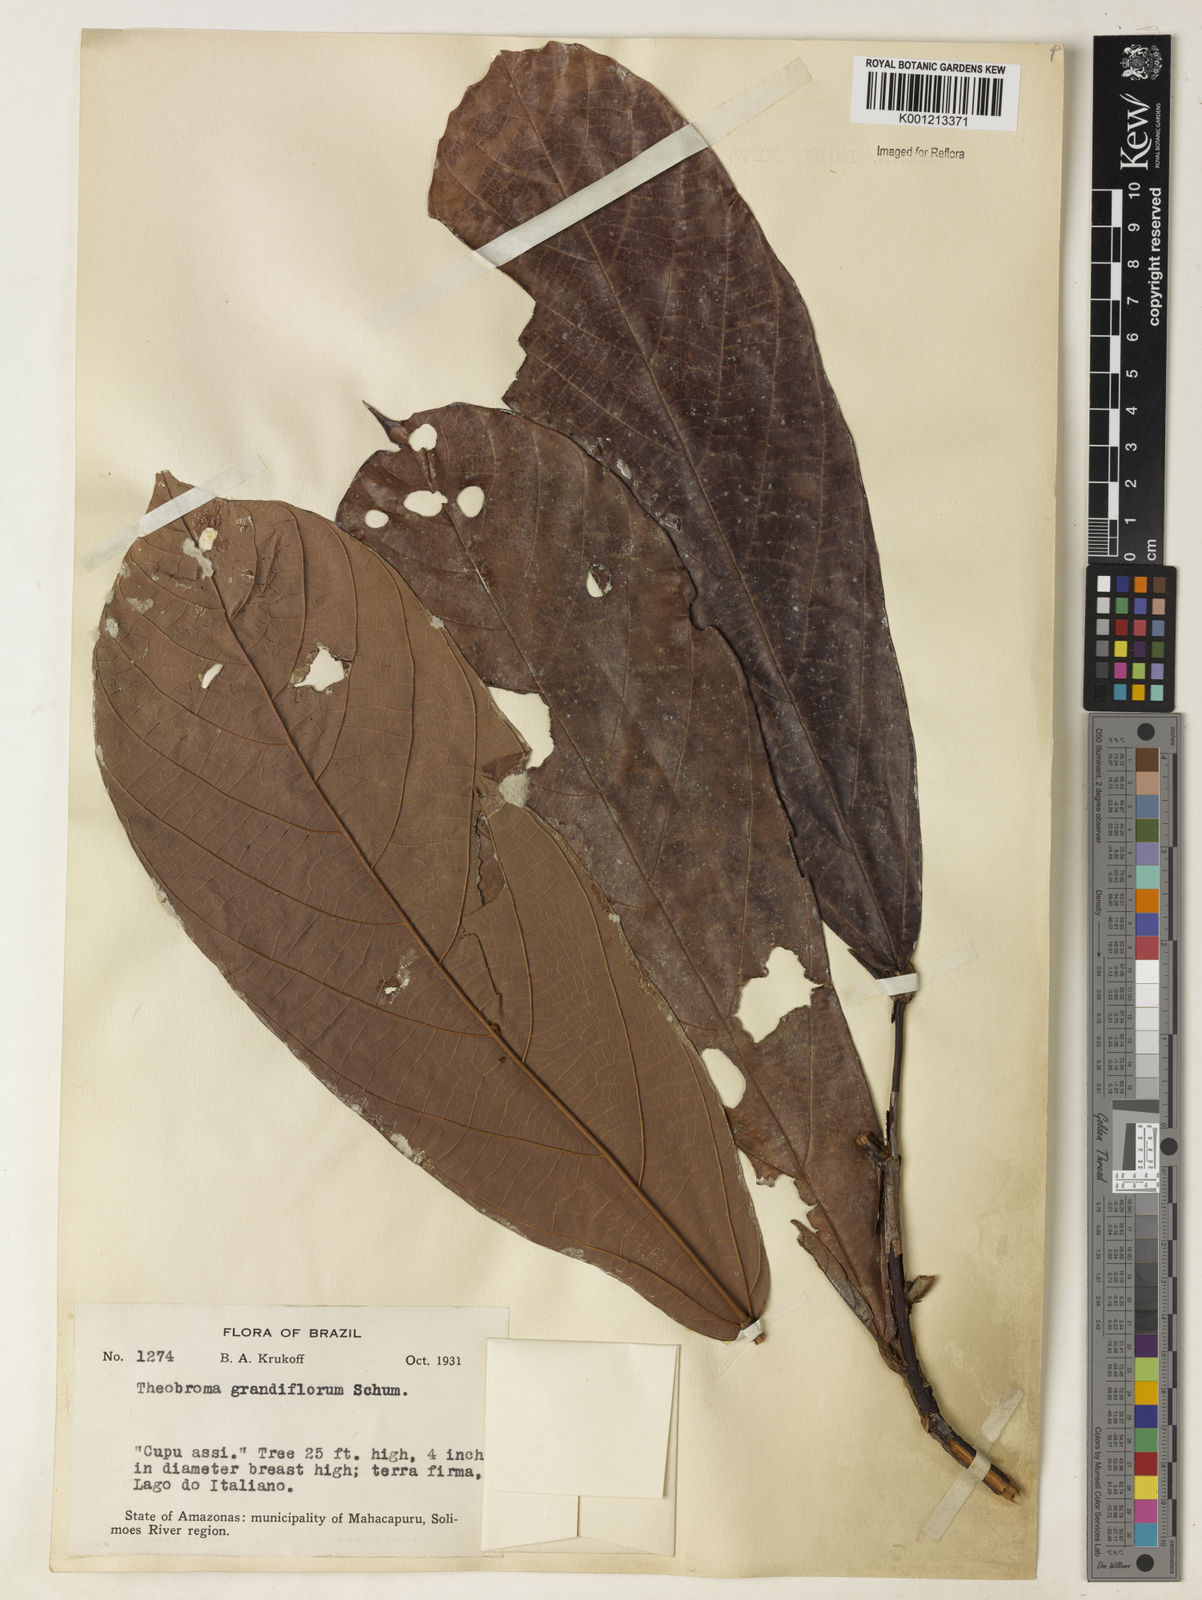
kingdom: Plantae
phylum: Tracheophyta
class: Magnoliopsida
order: Malvales
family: Malvaceae
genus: Theobroma
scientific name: Theobroma grandiflorum
